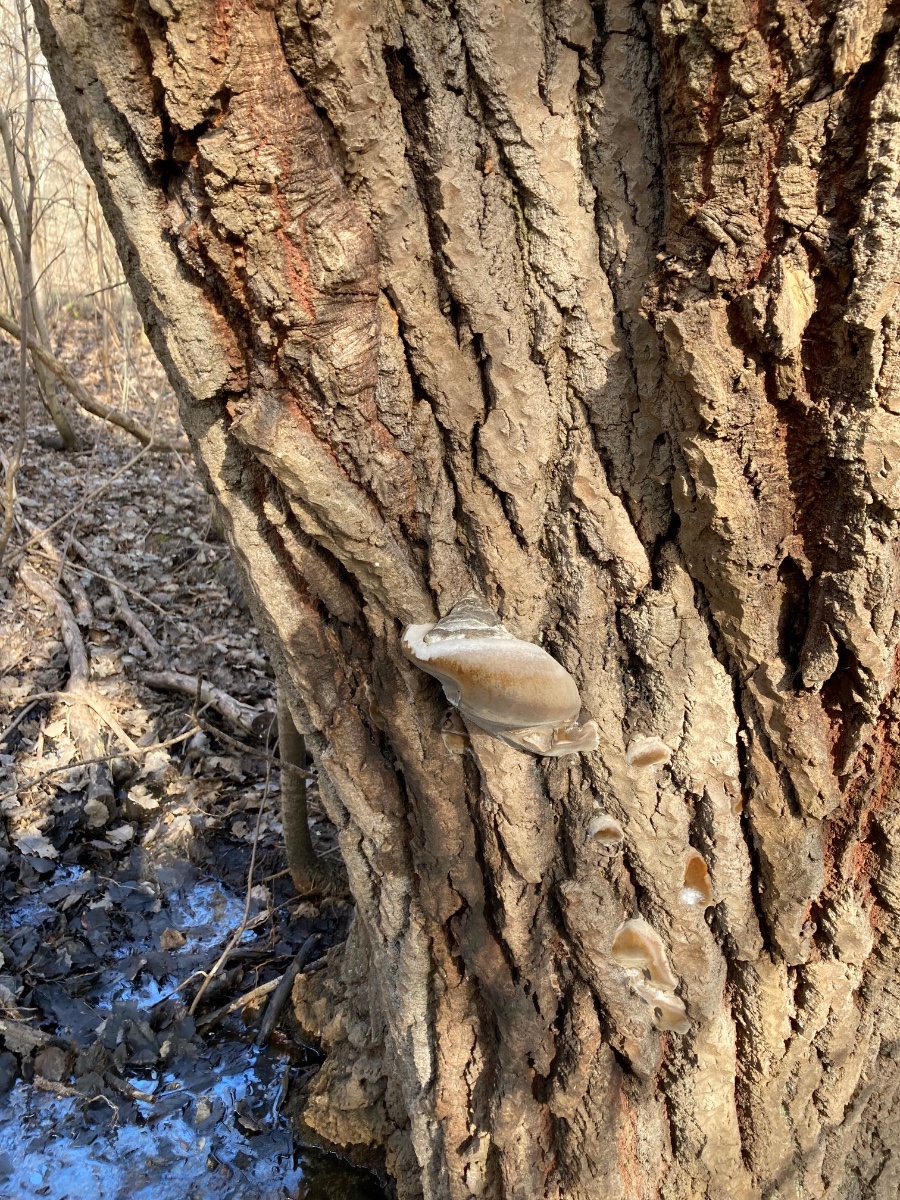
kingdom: Fungi
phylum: Basidiomycota
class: Agaricomycetes
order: Hymenochaetales
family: Hymenochaetaceae
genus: Phellinus
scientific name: Phellinus populicola
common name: poppel-ildporesvamp
